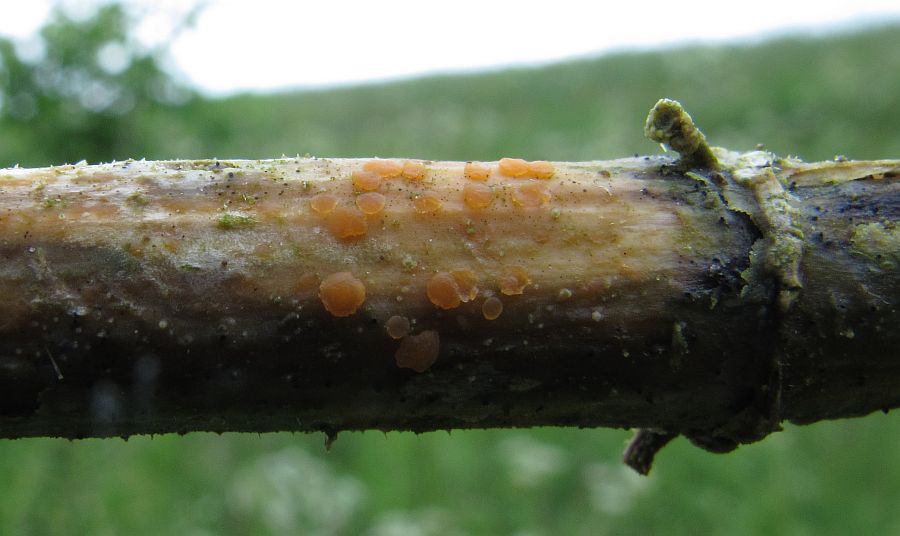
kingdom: Fungi
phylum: Ascomycota
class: Leotiomycetes
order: Helotiales
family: Calloriaceae
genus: Calloria
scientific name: Calloria urticae
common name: nælde-orangeskive
